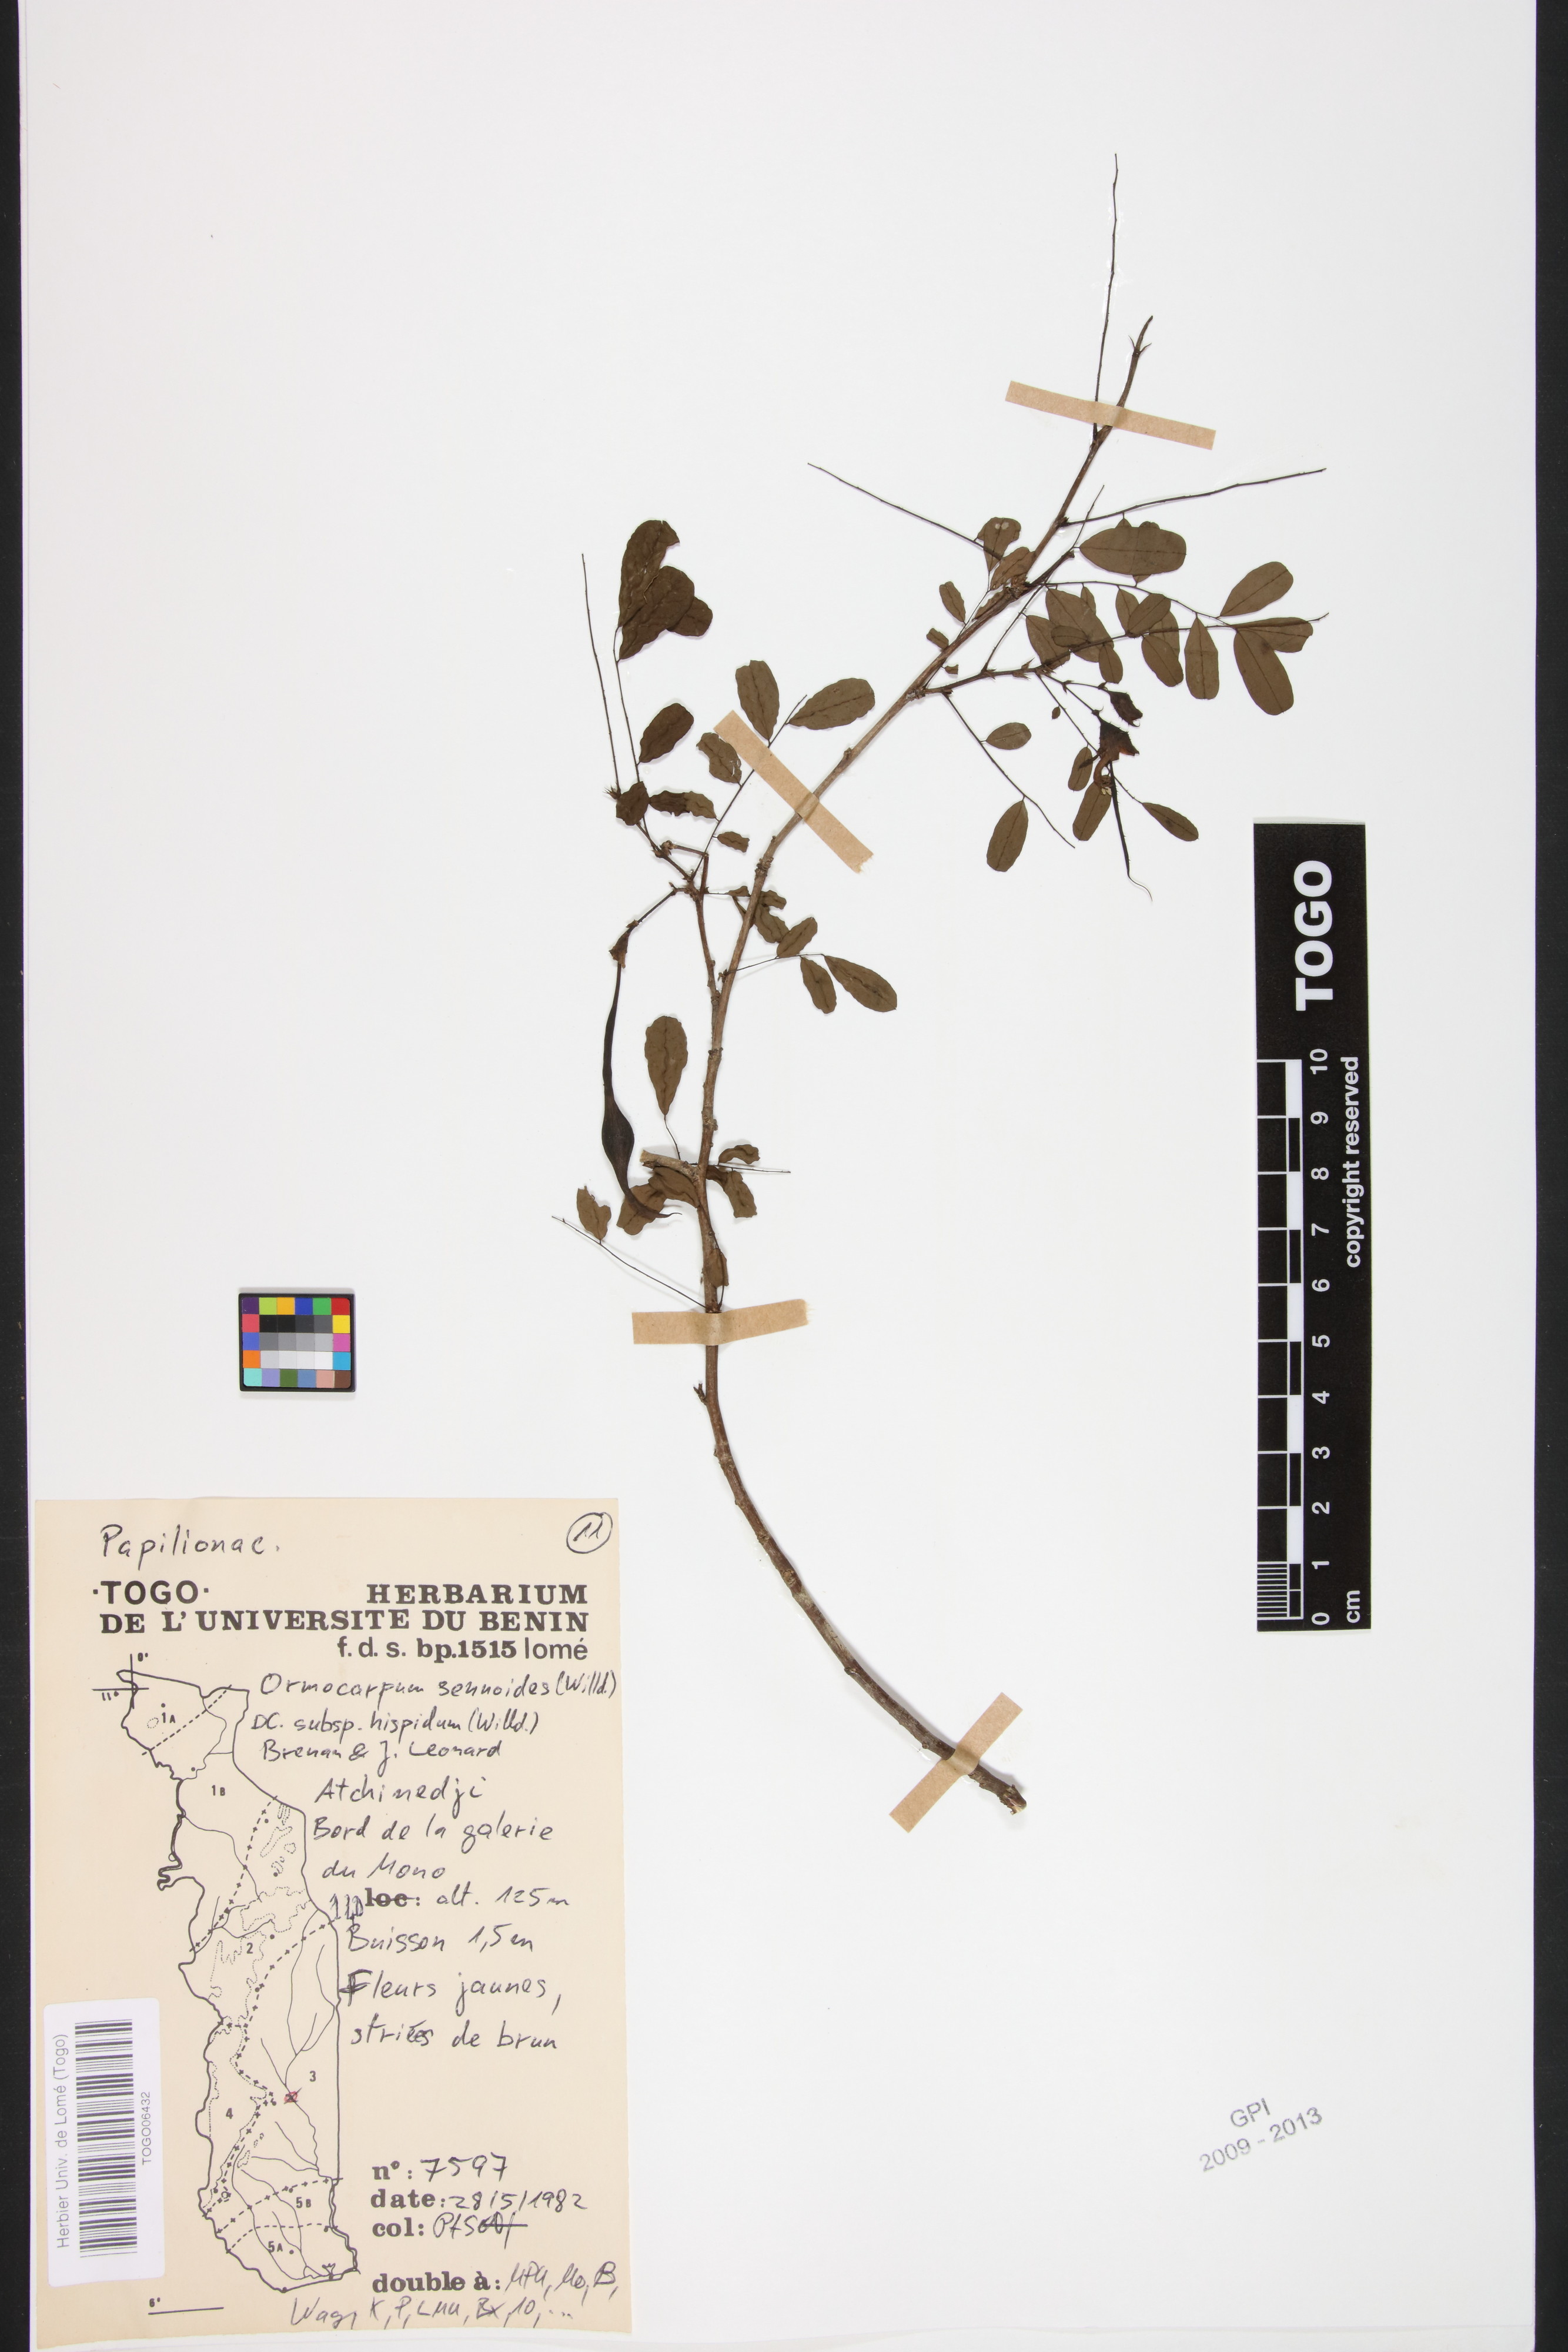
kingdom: Plantae
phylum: Tracheophyta
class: Magnoliopsida
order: Fabales
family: Fabaceae
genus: Ormocarpum
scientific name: Ormocarpum sennoides
